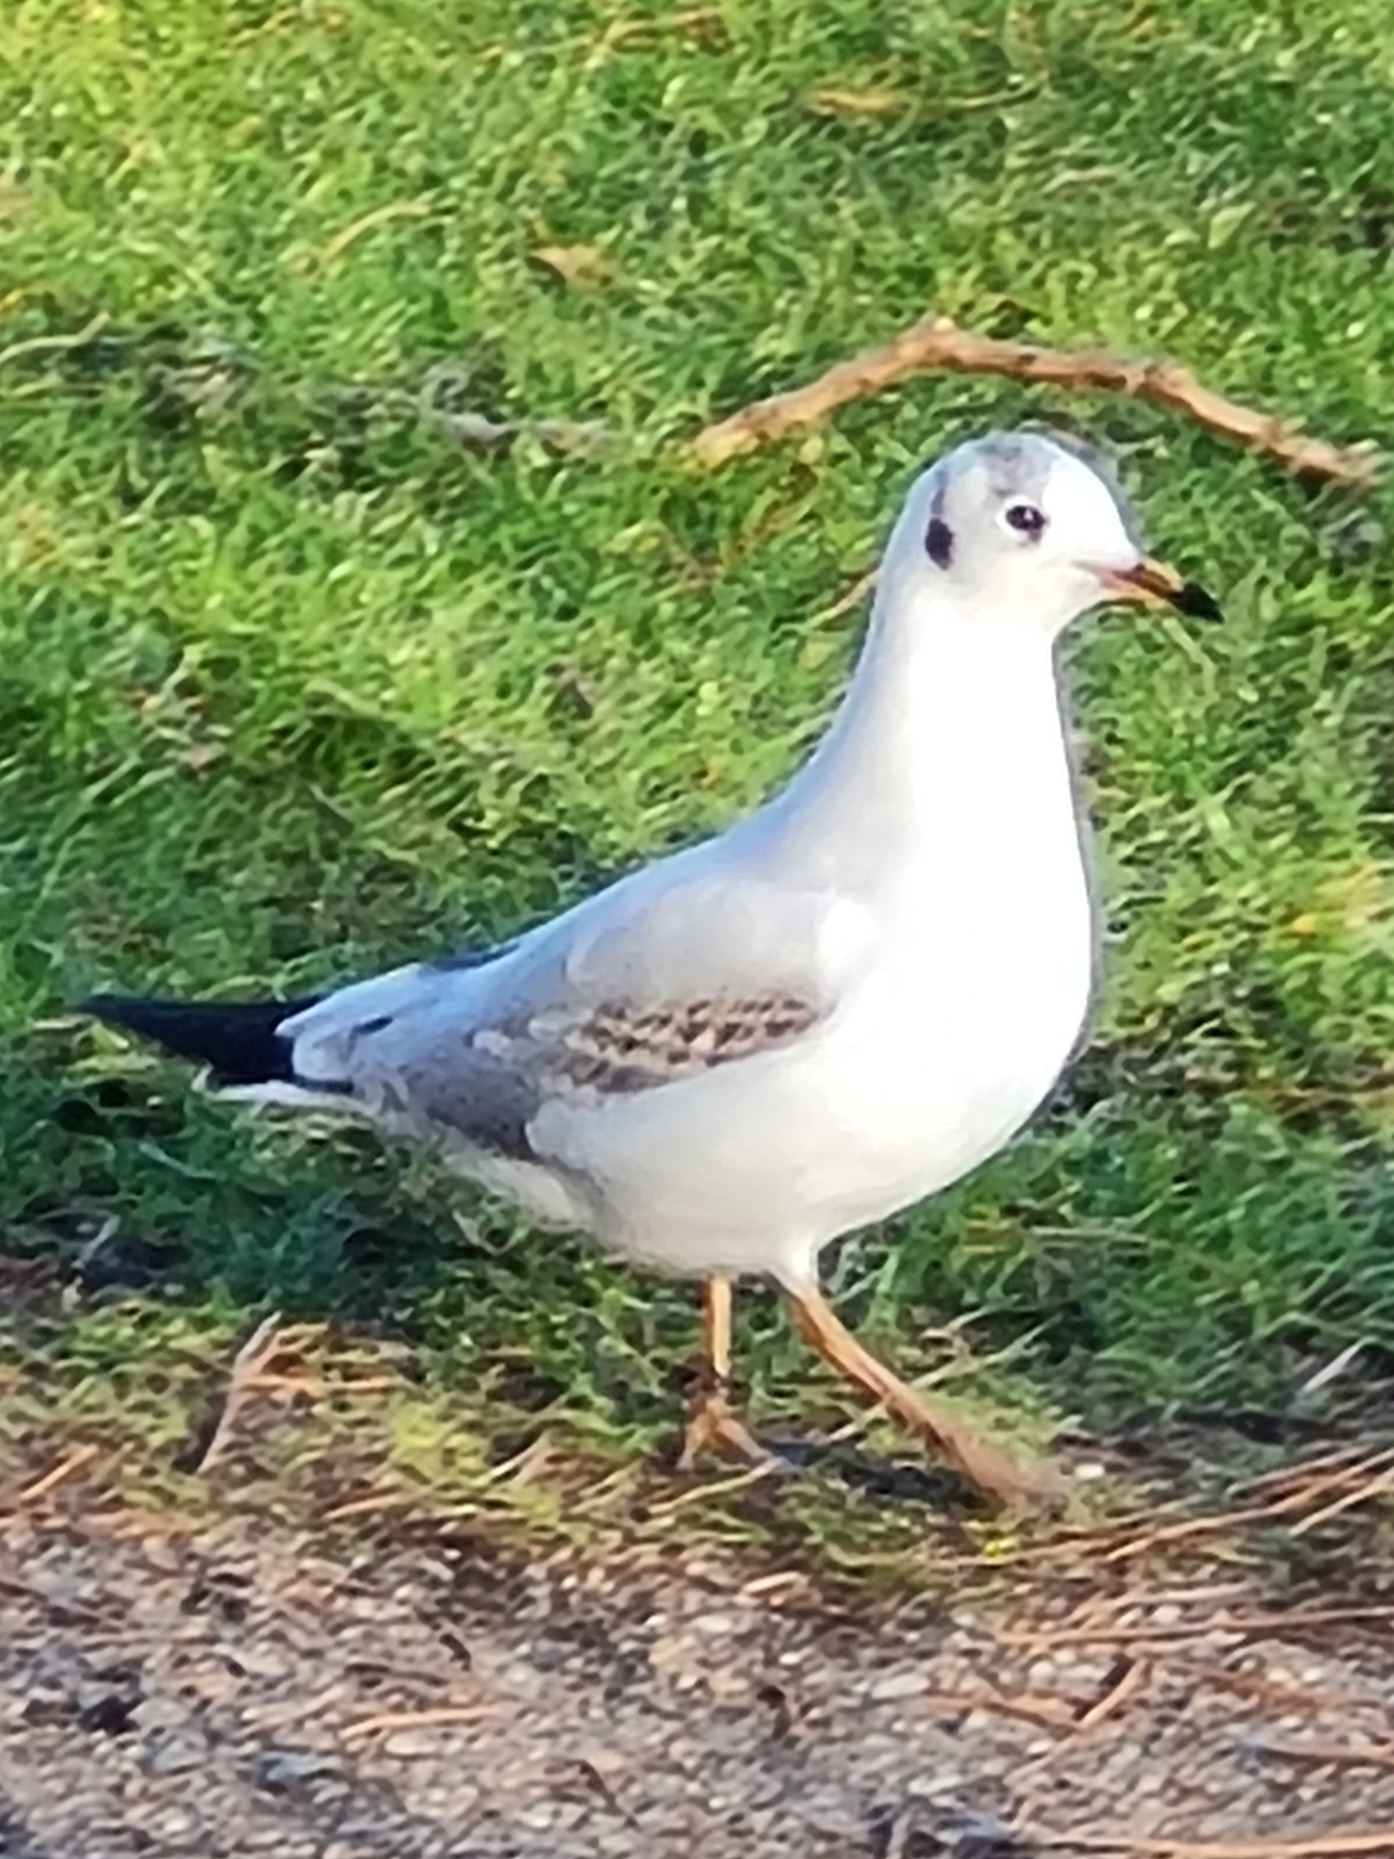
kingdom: Animalia
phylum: Chordata
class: Aves
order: Charadriiformes
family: Laridae
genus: Chroicocephalus
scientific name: Chroicocephalus ridibundus
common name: Hættemåge
